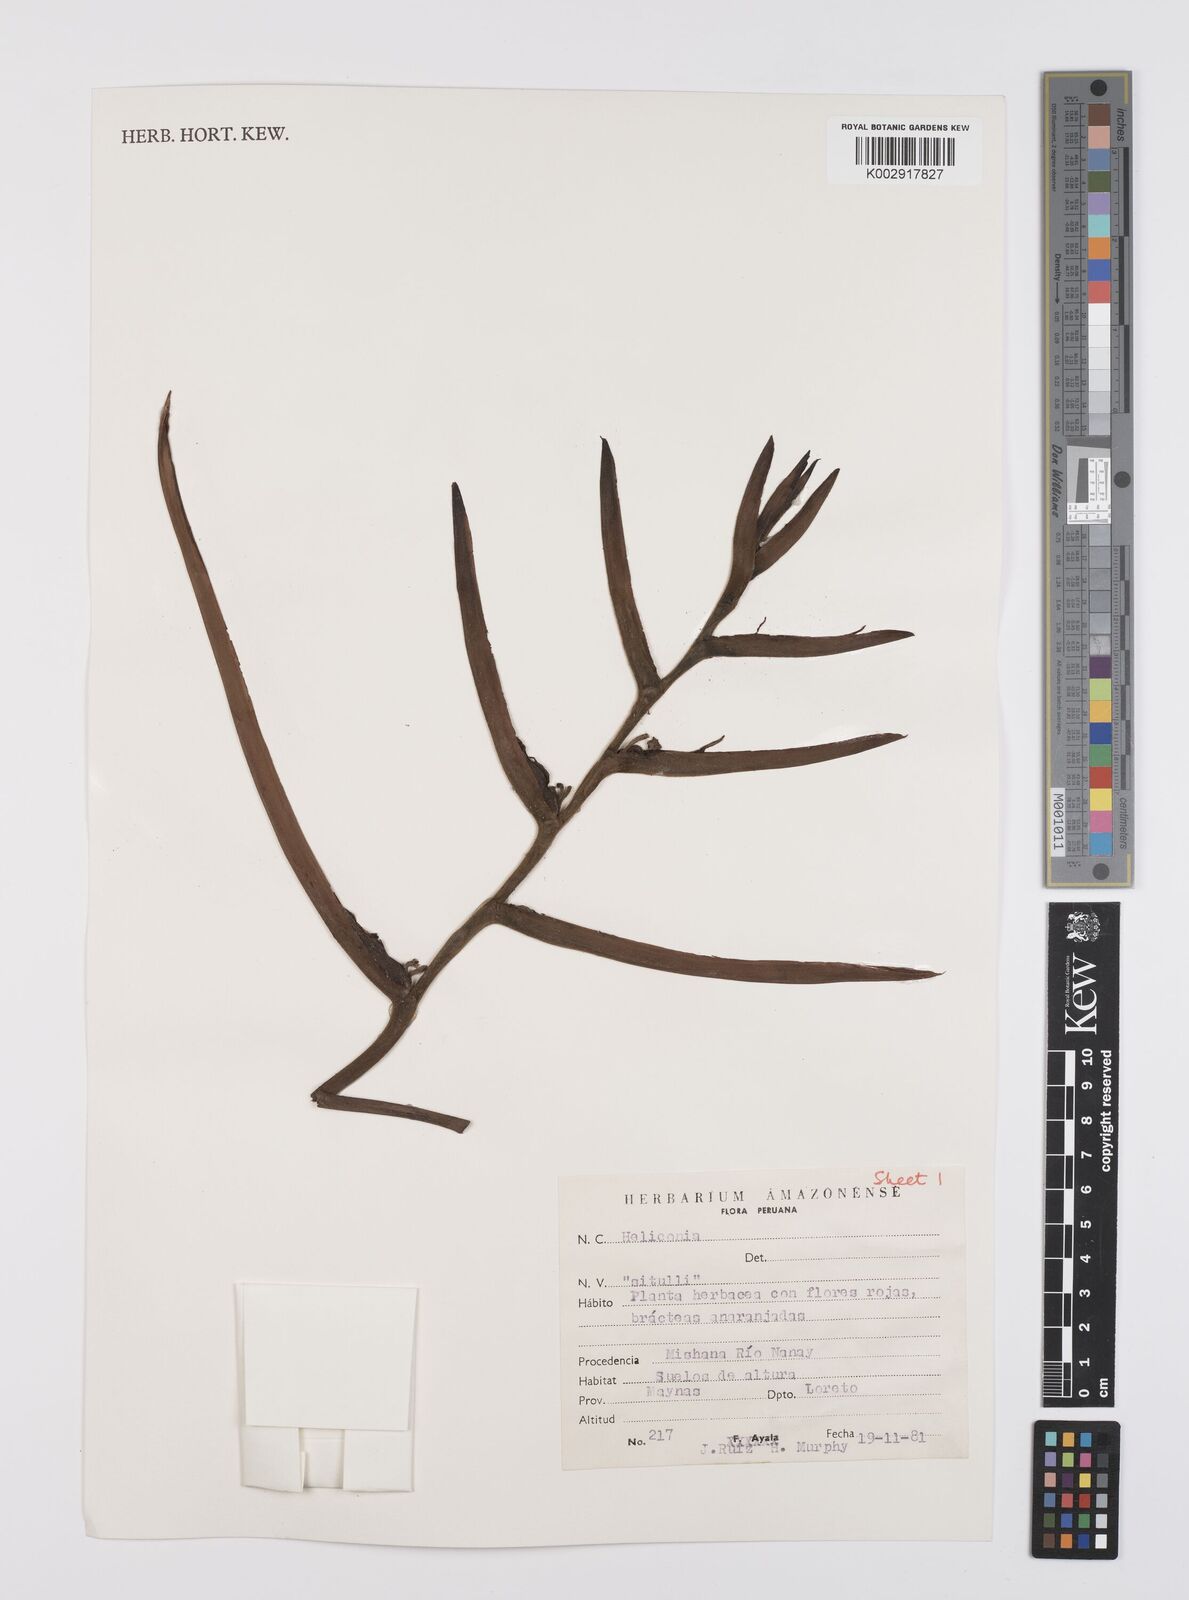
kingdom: Plantae
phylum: Tracheophyta
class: Liliopsida
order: Zingiberales
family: Heliconiaceae
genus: Heliconia
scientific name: Heliconia
